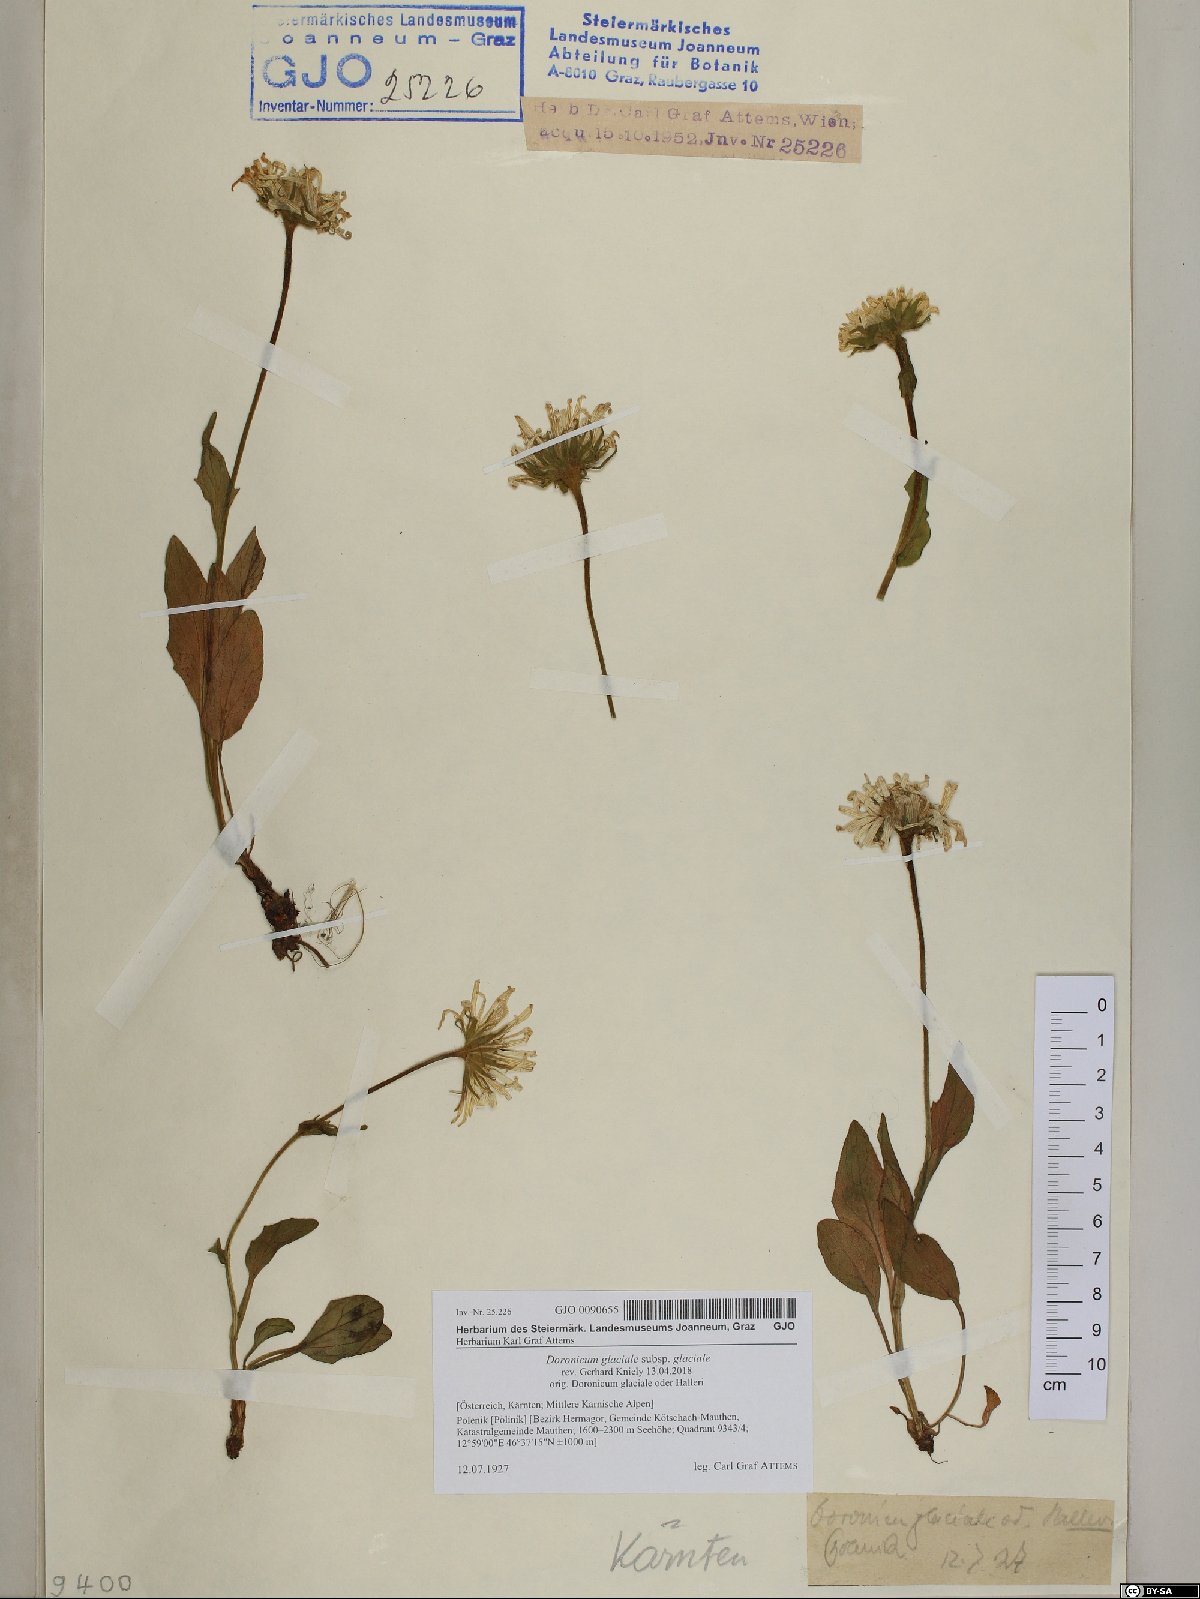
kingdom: Plantae
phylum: Tracheophyta
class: Magnoliopsida
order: Asterales
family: Asteraceae
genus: Doronicum
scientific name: Doronicum glaciale
